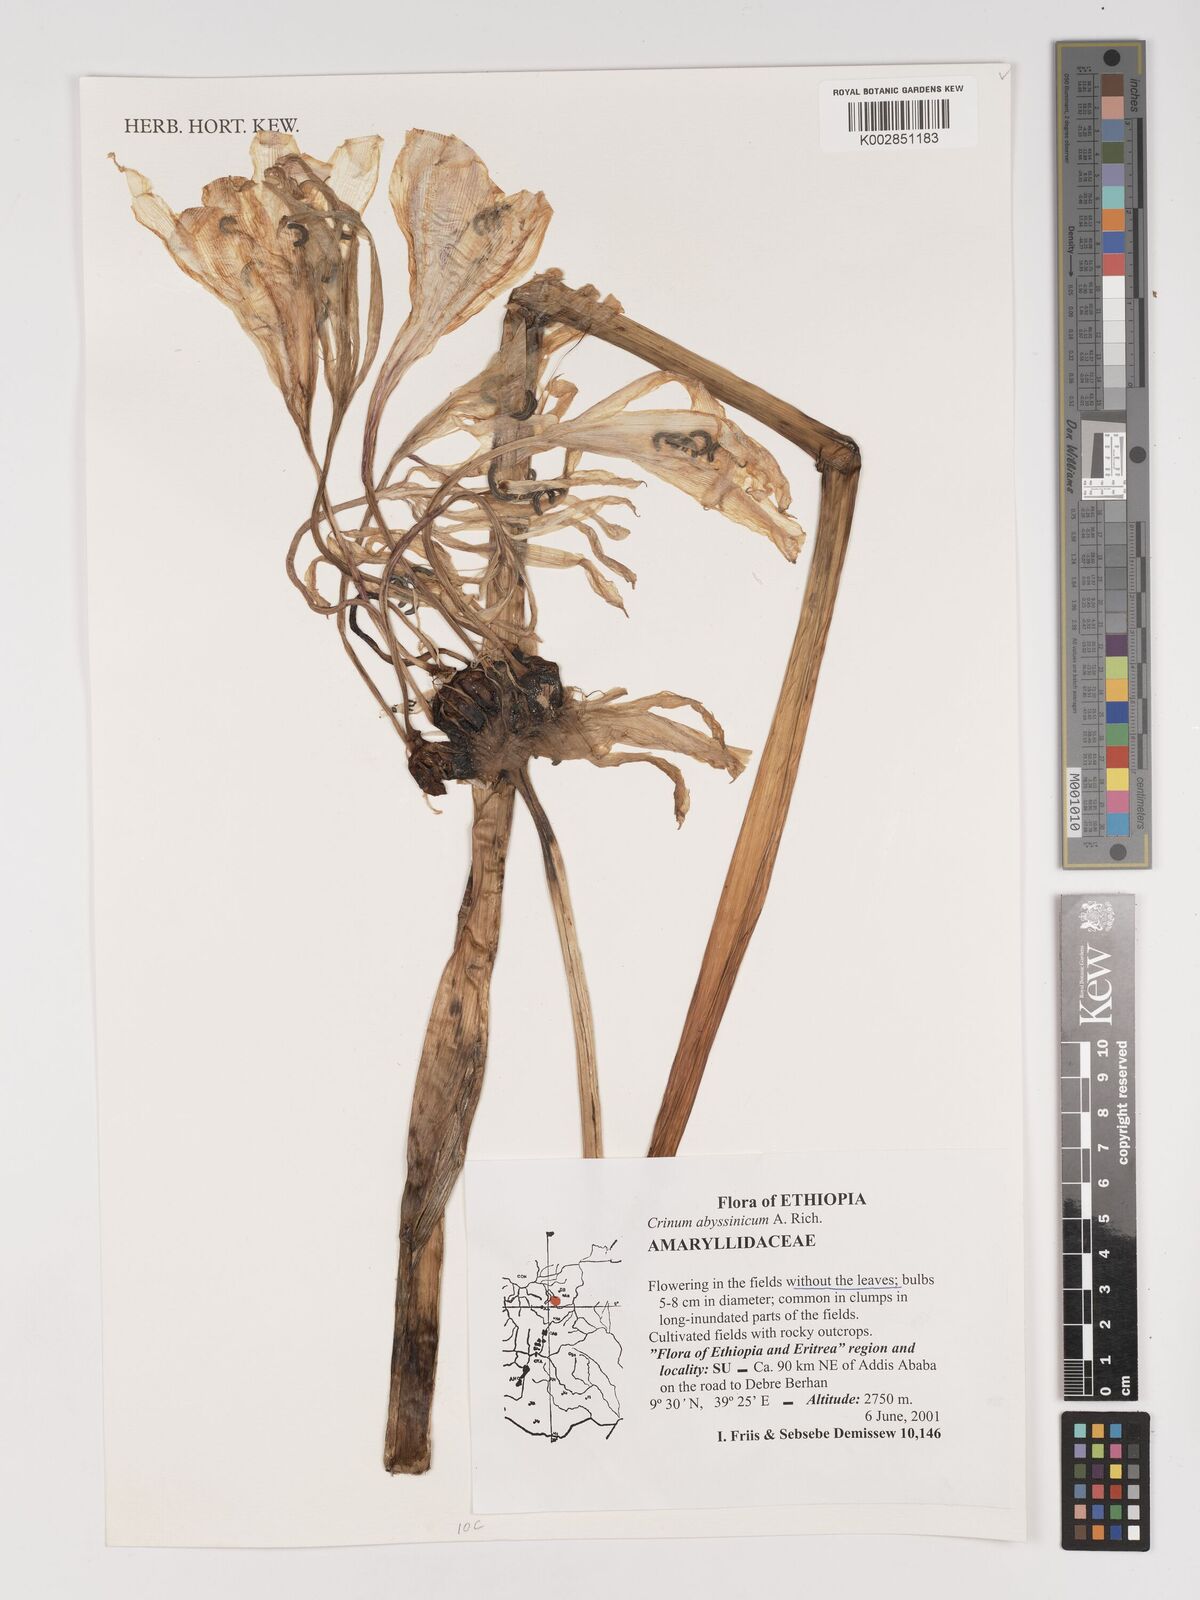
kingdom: Plantae
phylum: Tracheophyta
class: Liliopsida
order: Asparagales
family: Amaryllidaceae
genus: Crinum
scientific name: Crinum abyssinicum
